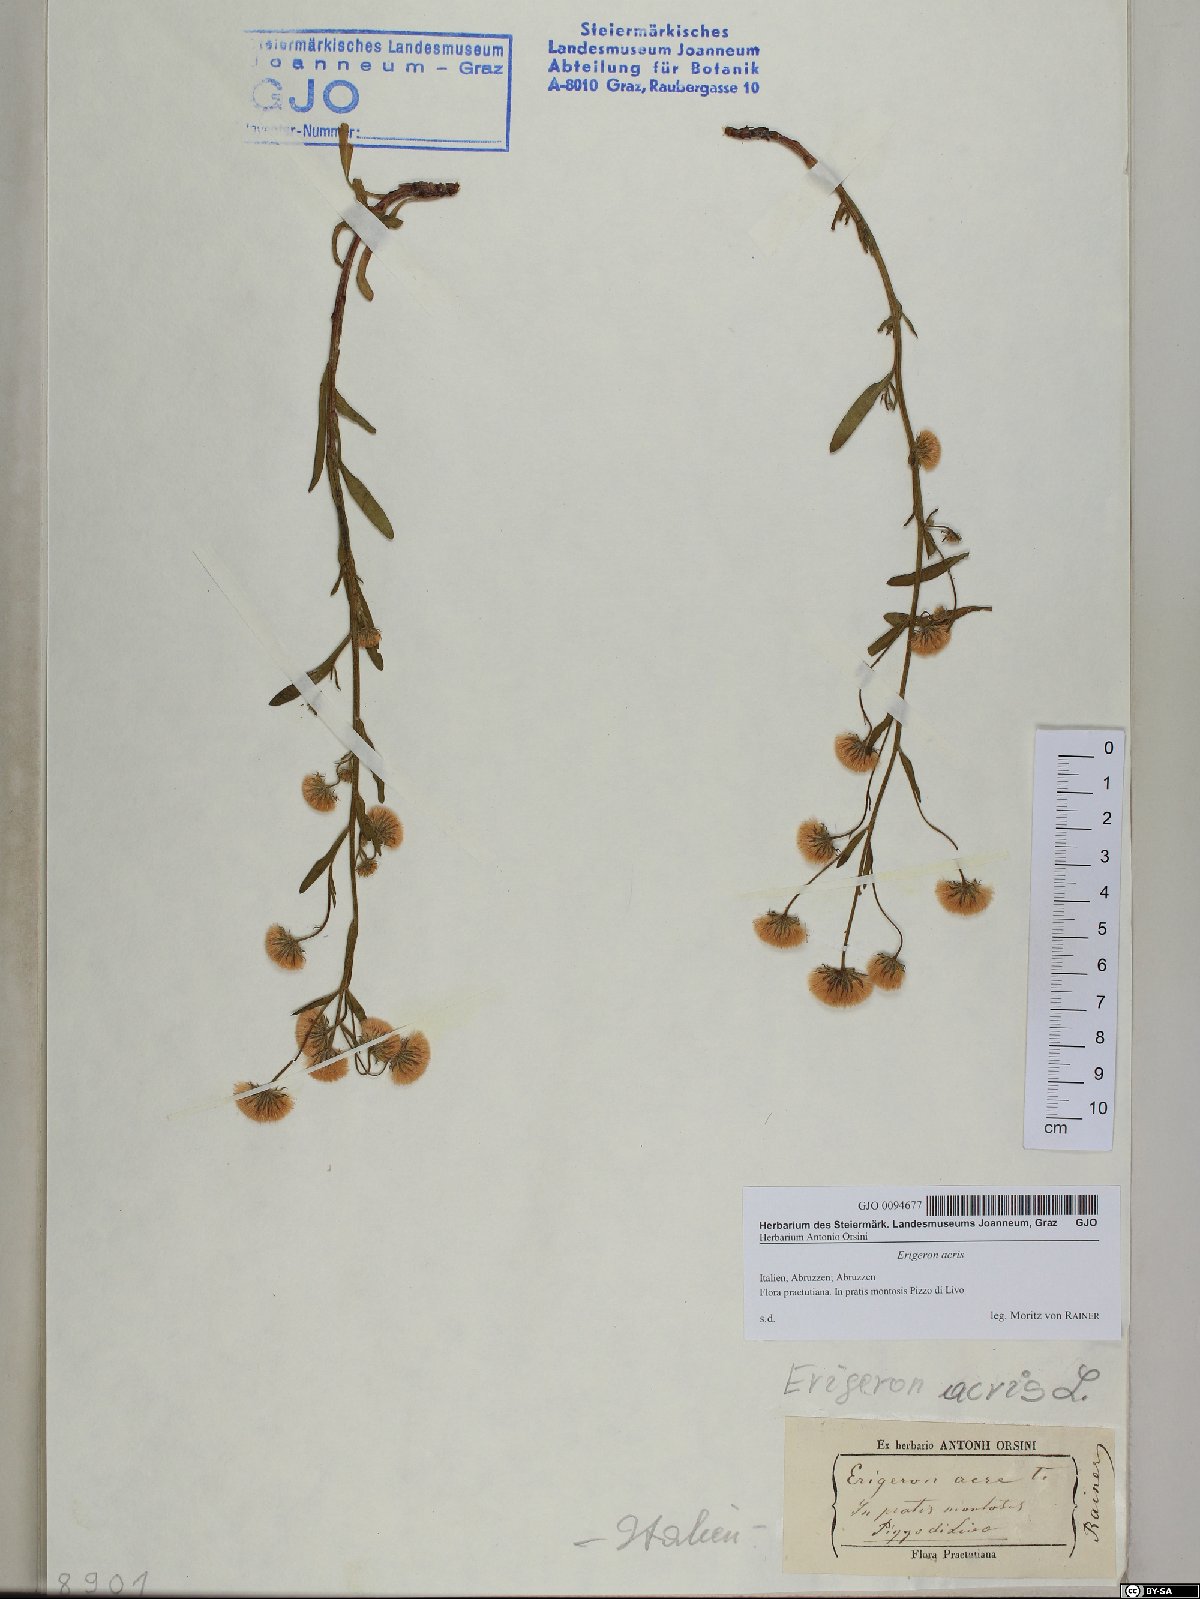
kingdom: Plantae
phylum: Tracheophyta
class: Magnoliopsida
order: Asterales
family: Asteraceae
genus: Erigeron
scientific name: Erigeron acris
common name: Blue fleabane
